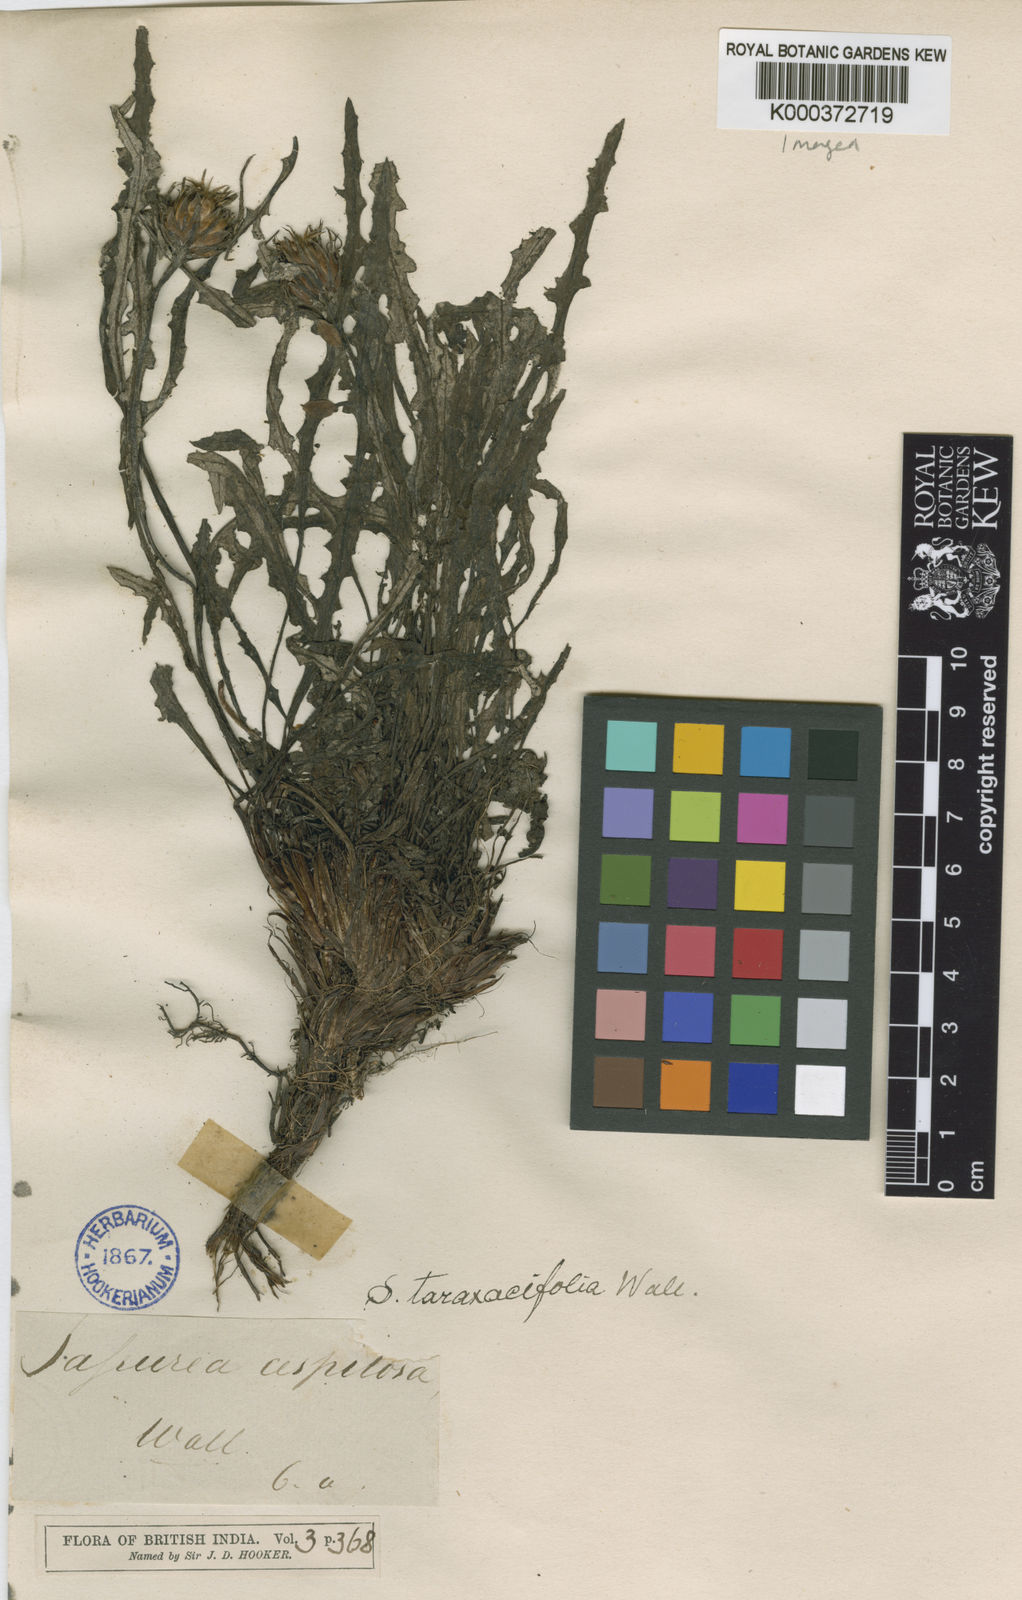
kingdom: Plantae
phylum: Tracheophyta
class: Magnoliopsida
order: Asterales
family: Asteraceae
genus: Saussurea
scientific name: Saussurea
